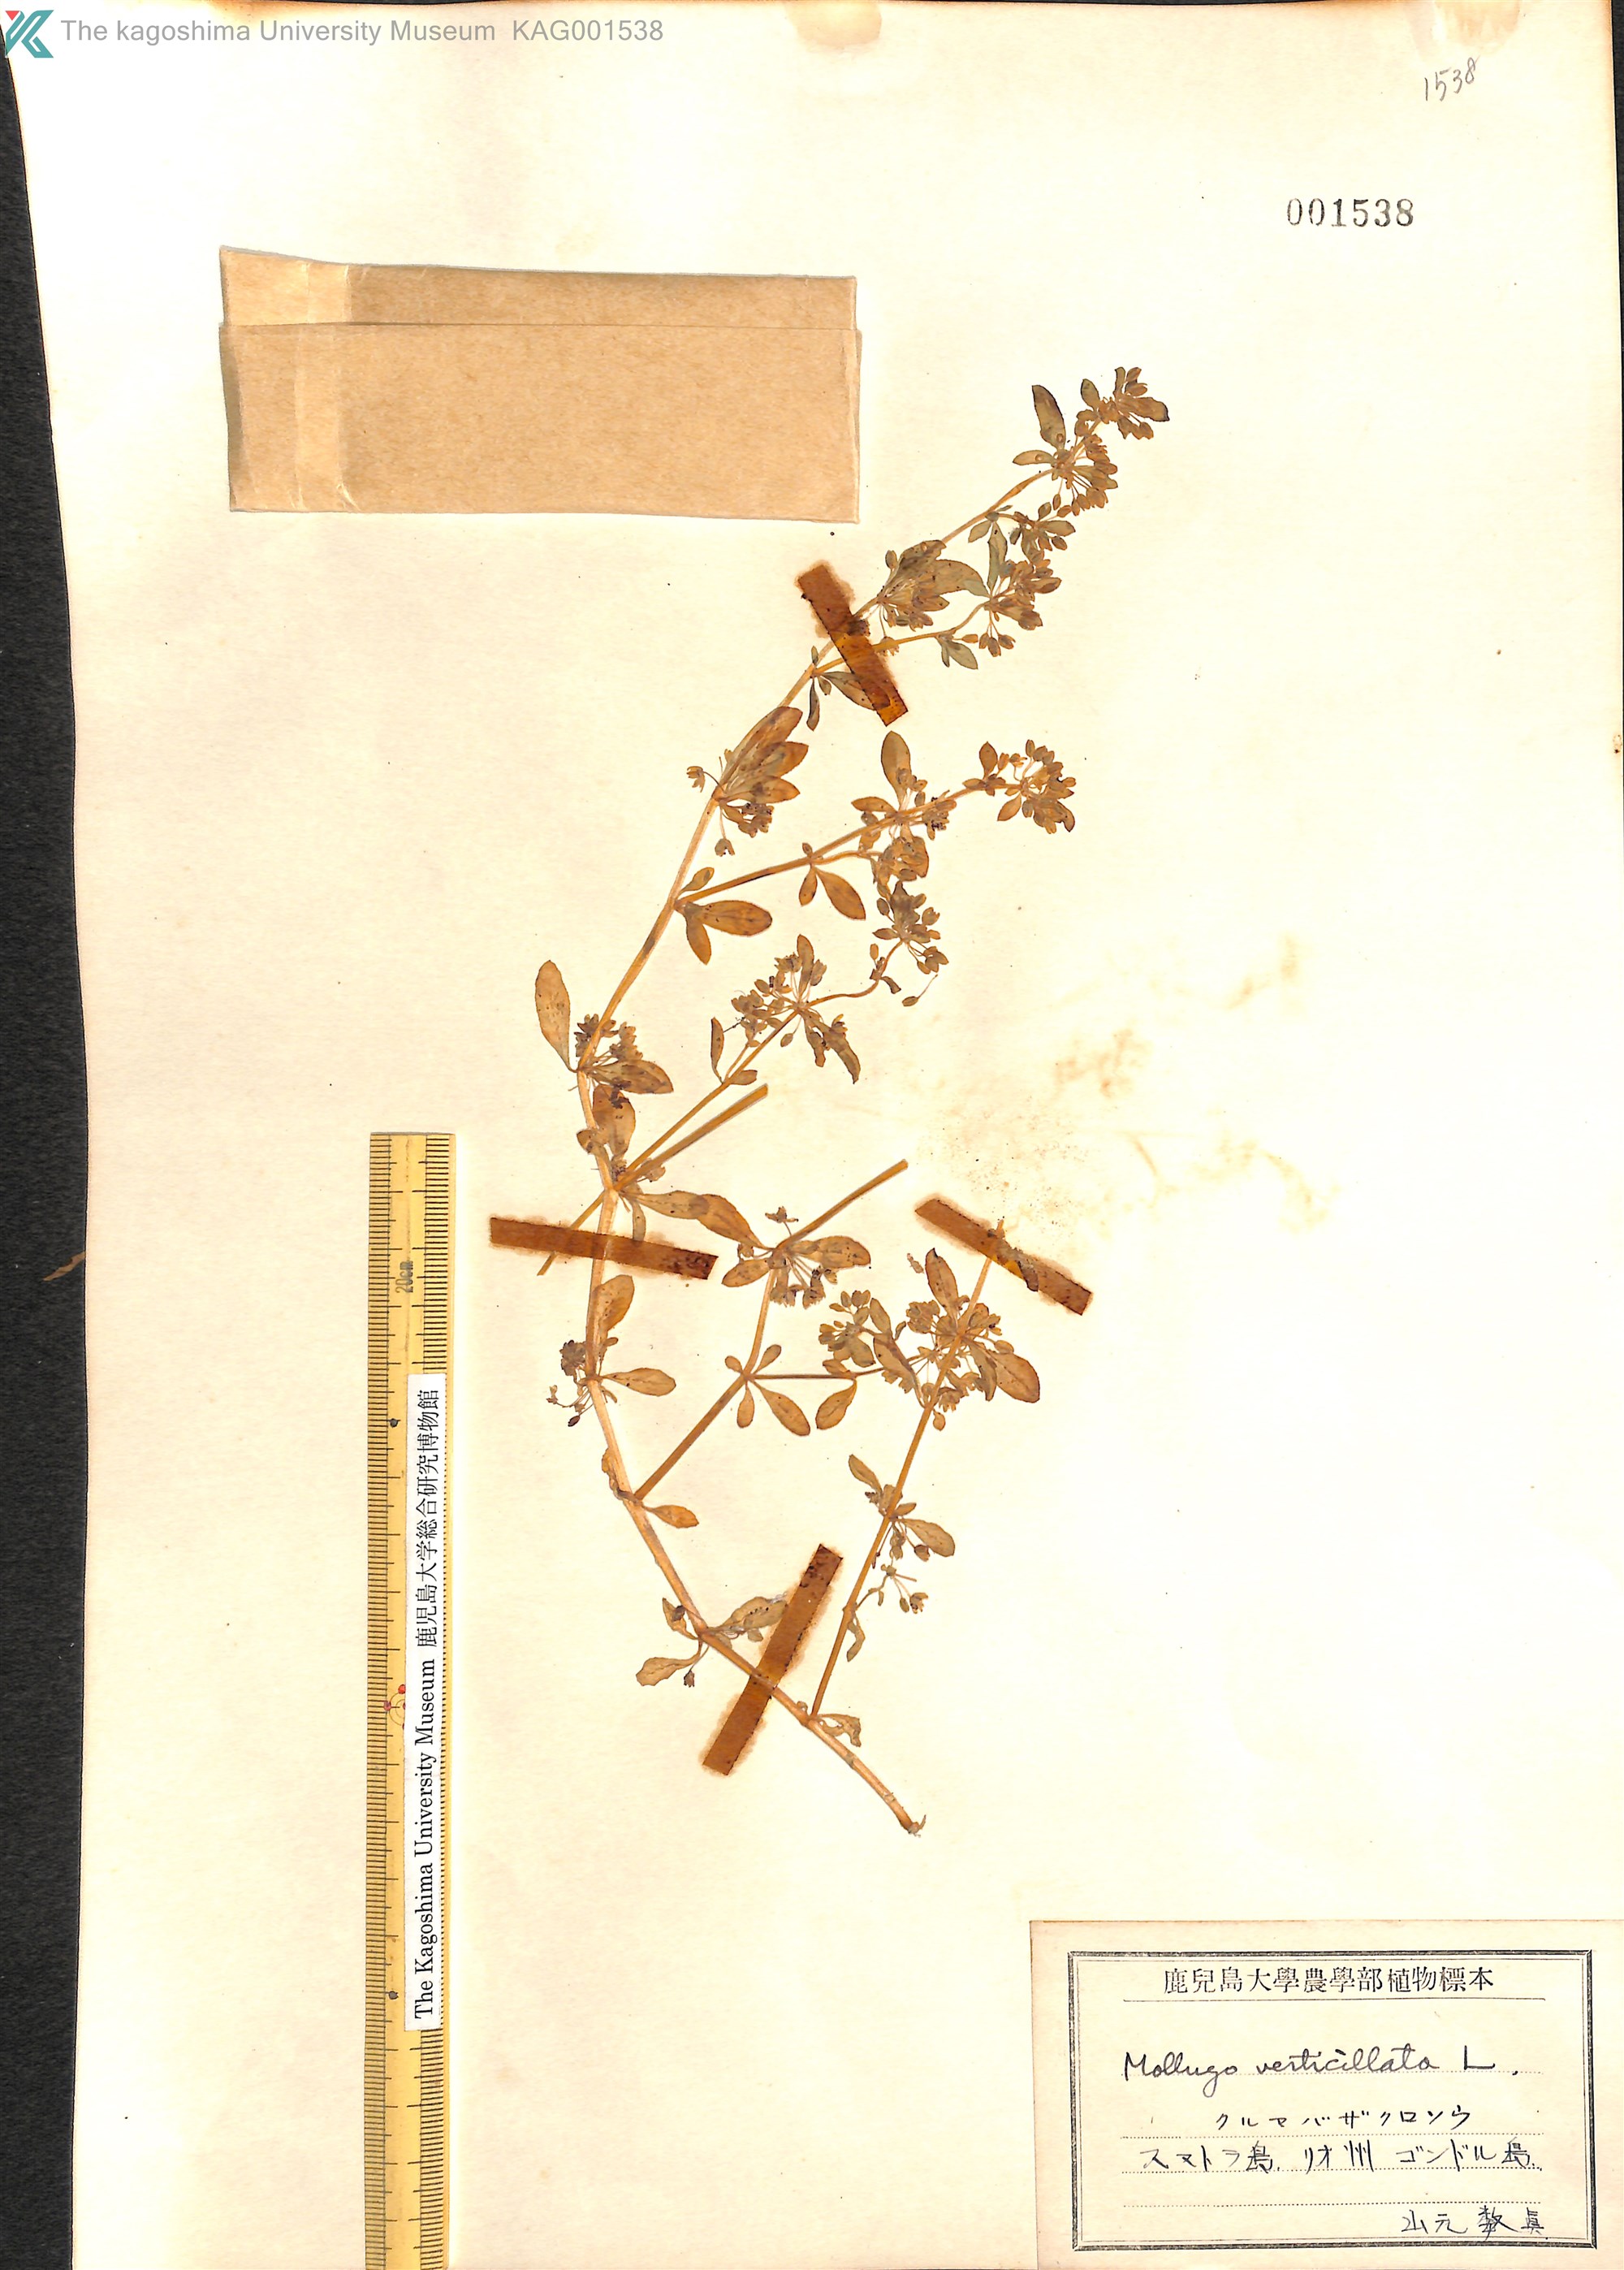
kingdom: Plantae
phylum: Tracheophyta
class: Magnoliopsida
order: Caryophyllales
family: Molluginaceae
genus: Mollugo
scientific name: Mollugo verticillata
